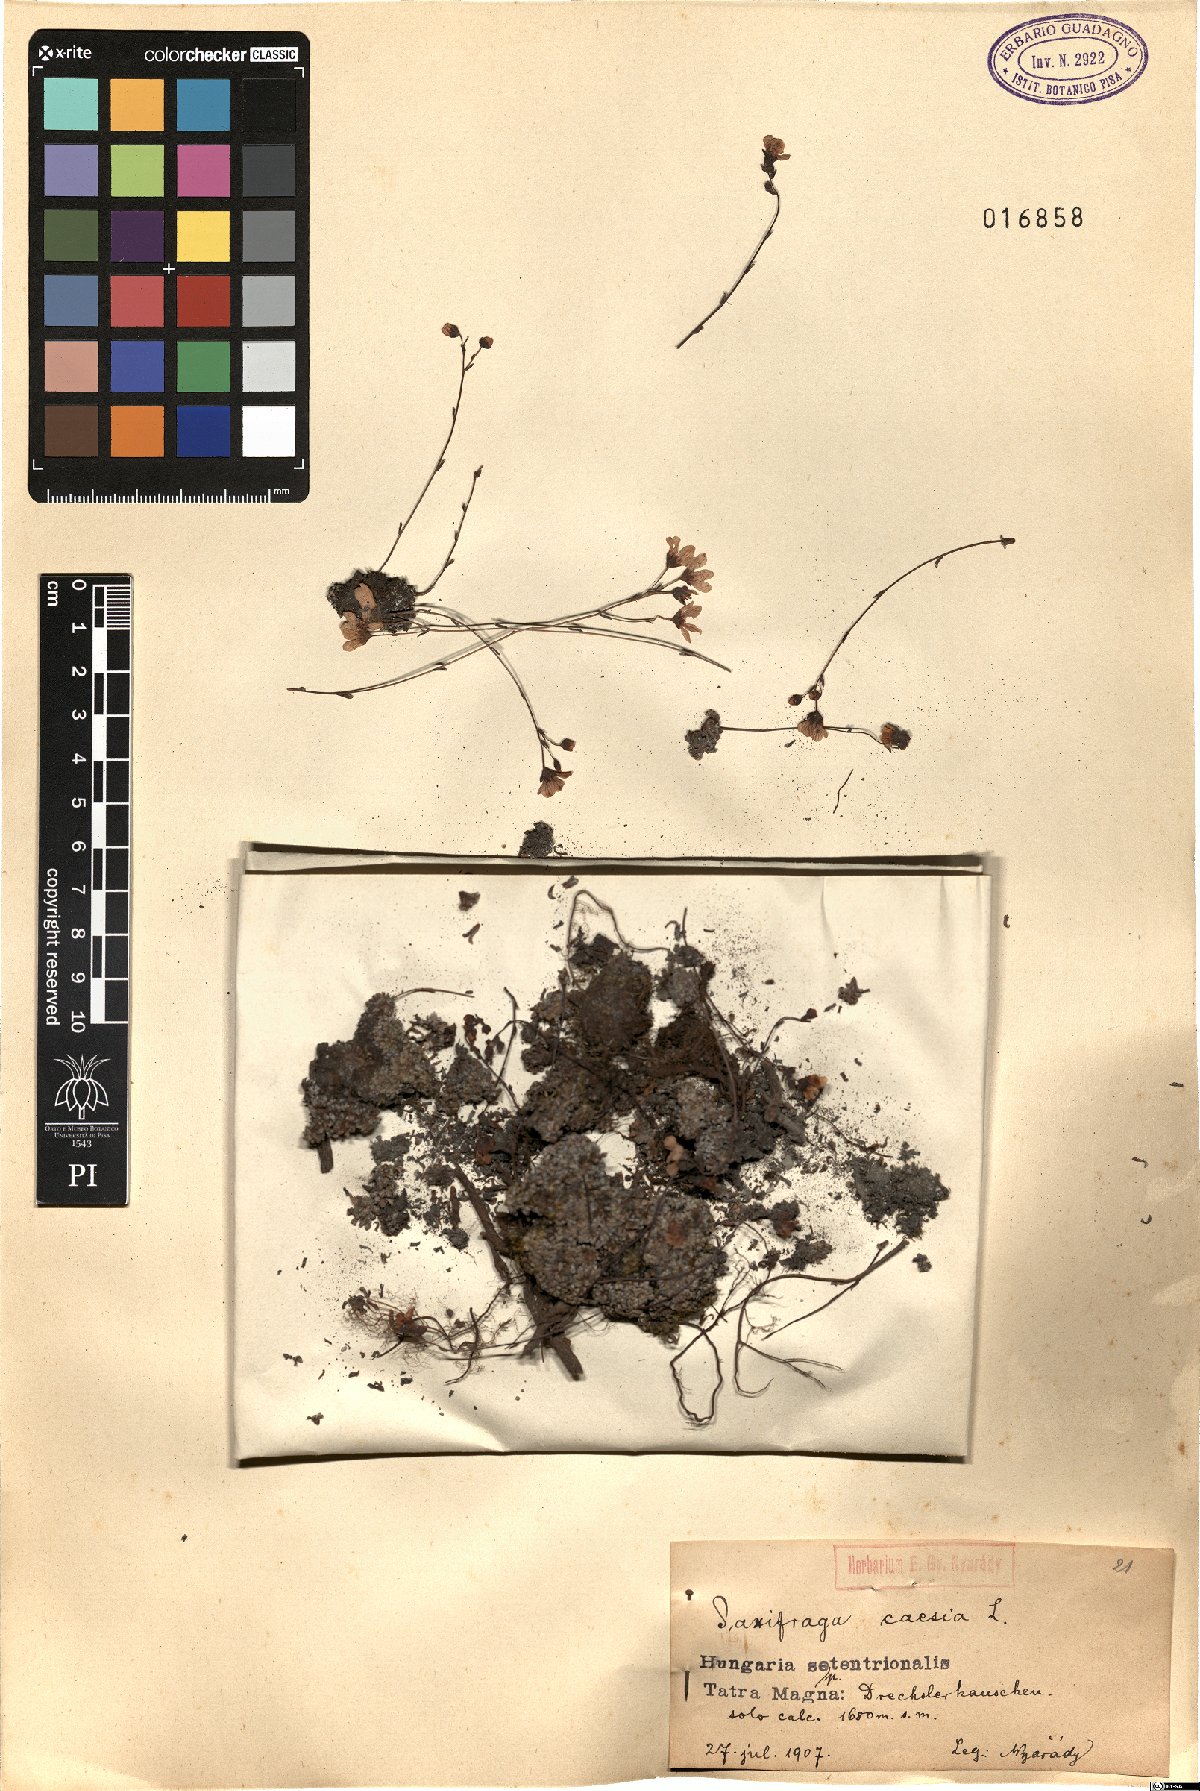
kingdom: Plantae
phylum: Tracheophyta
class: Magnoliopsida
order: Saxifragales
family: Saxifragaceae
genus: Saxifraga
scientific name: Saxifraga caesia
